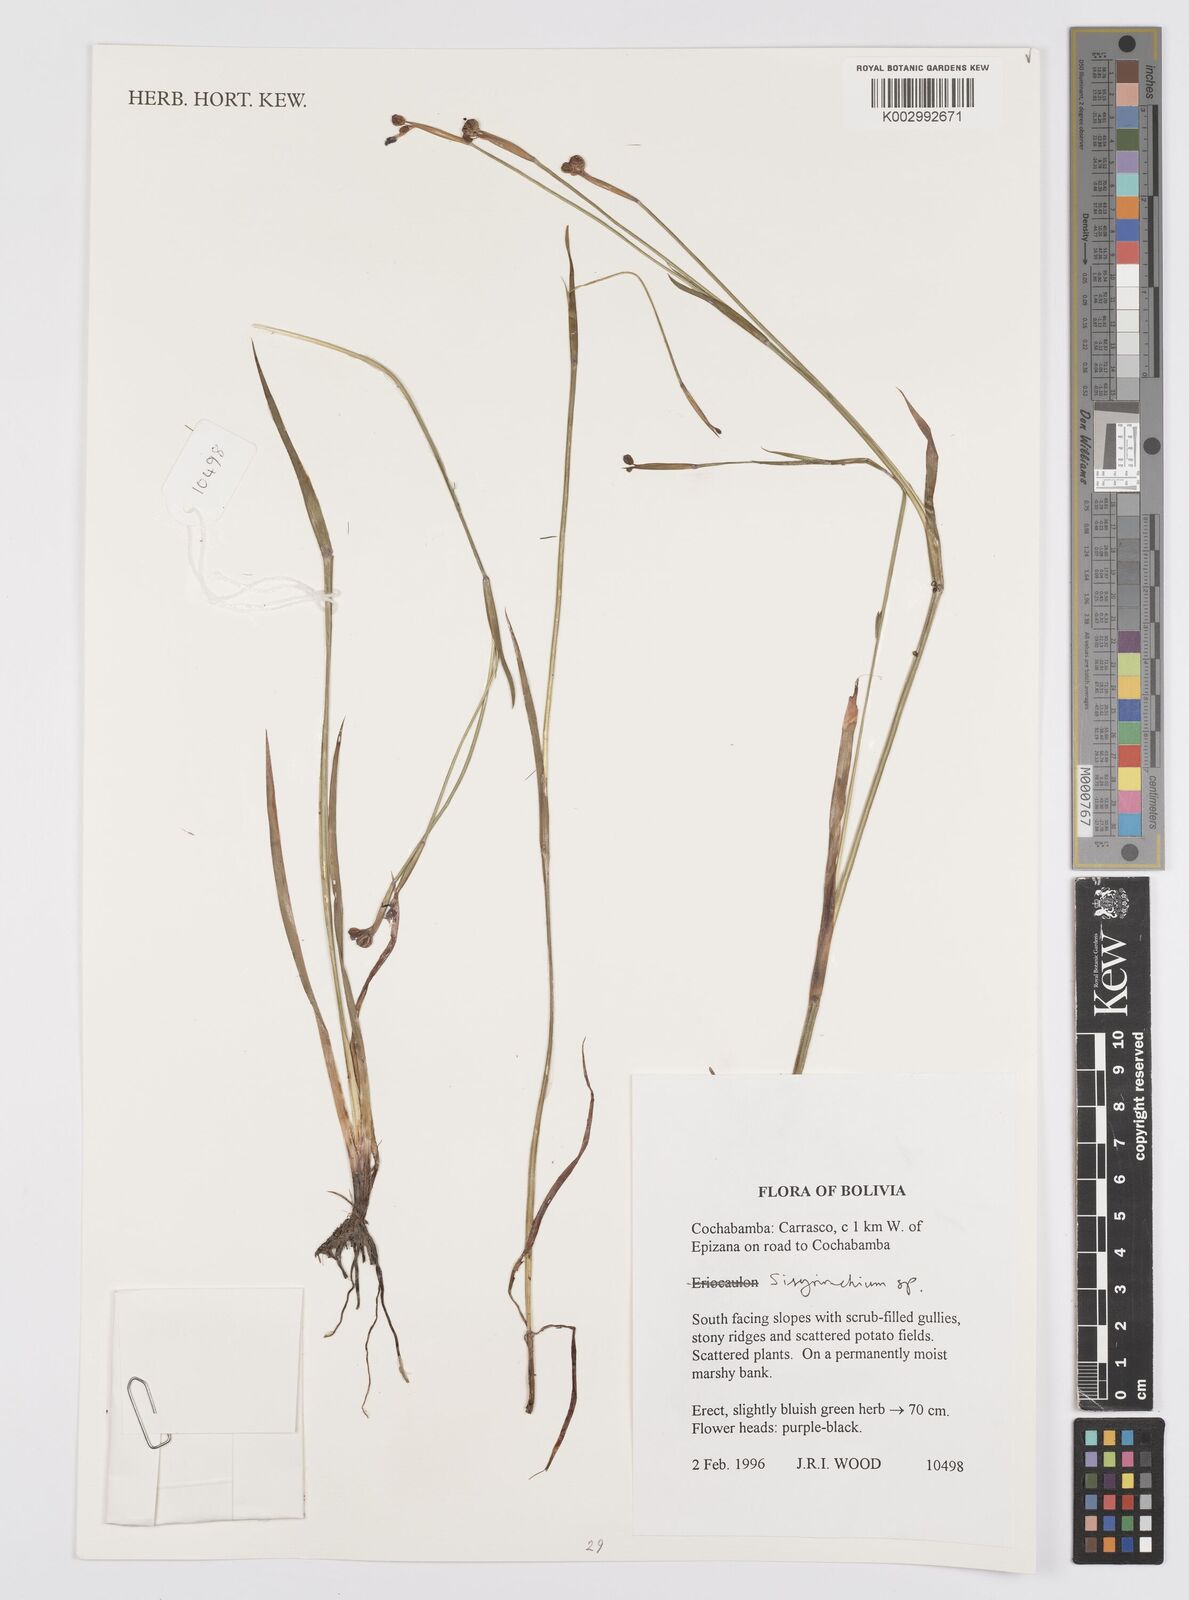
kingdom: Plantae
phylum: Tracheophyta
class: Liliopsida
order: Asparagales
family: Iridaceae
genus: Sisyrinchium
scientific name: Sisyrinchium
